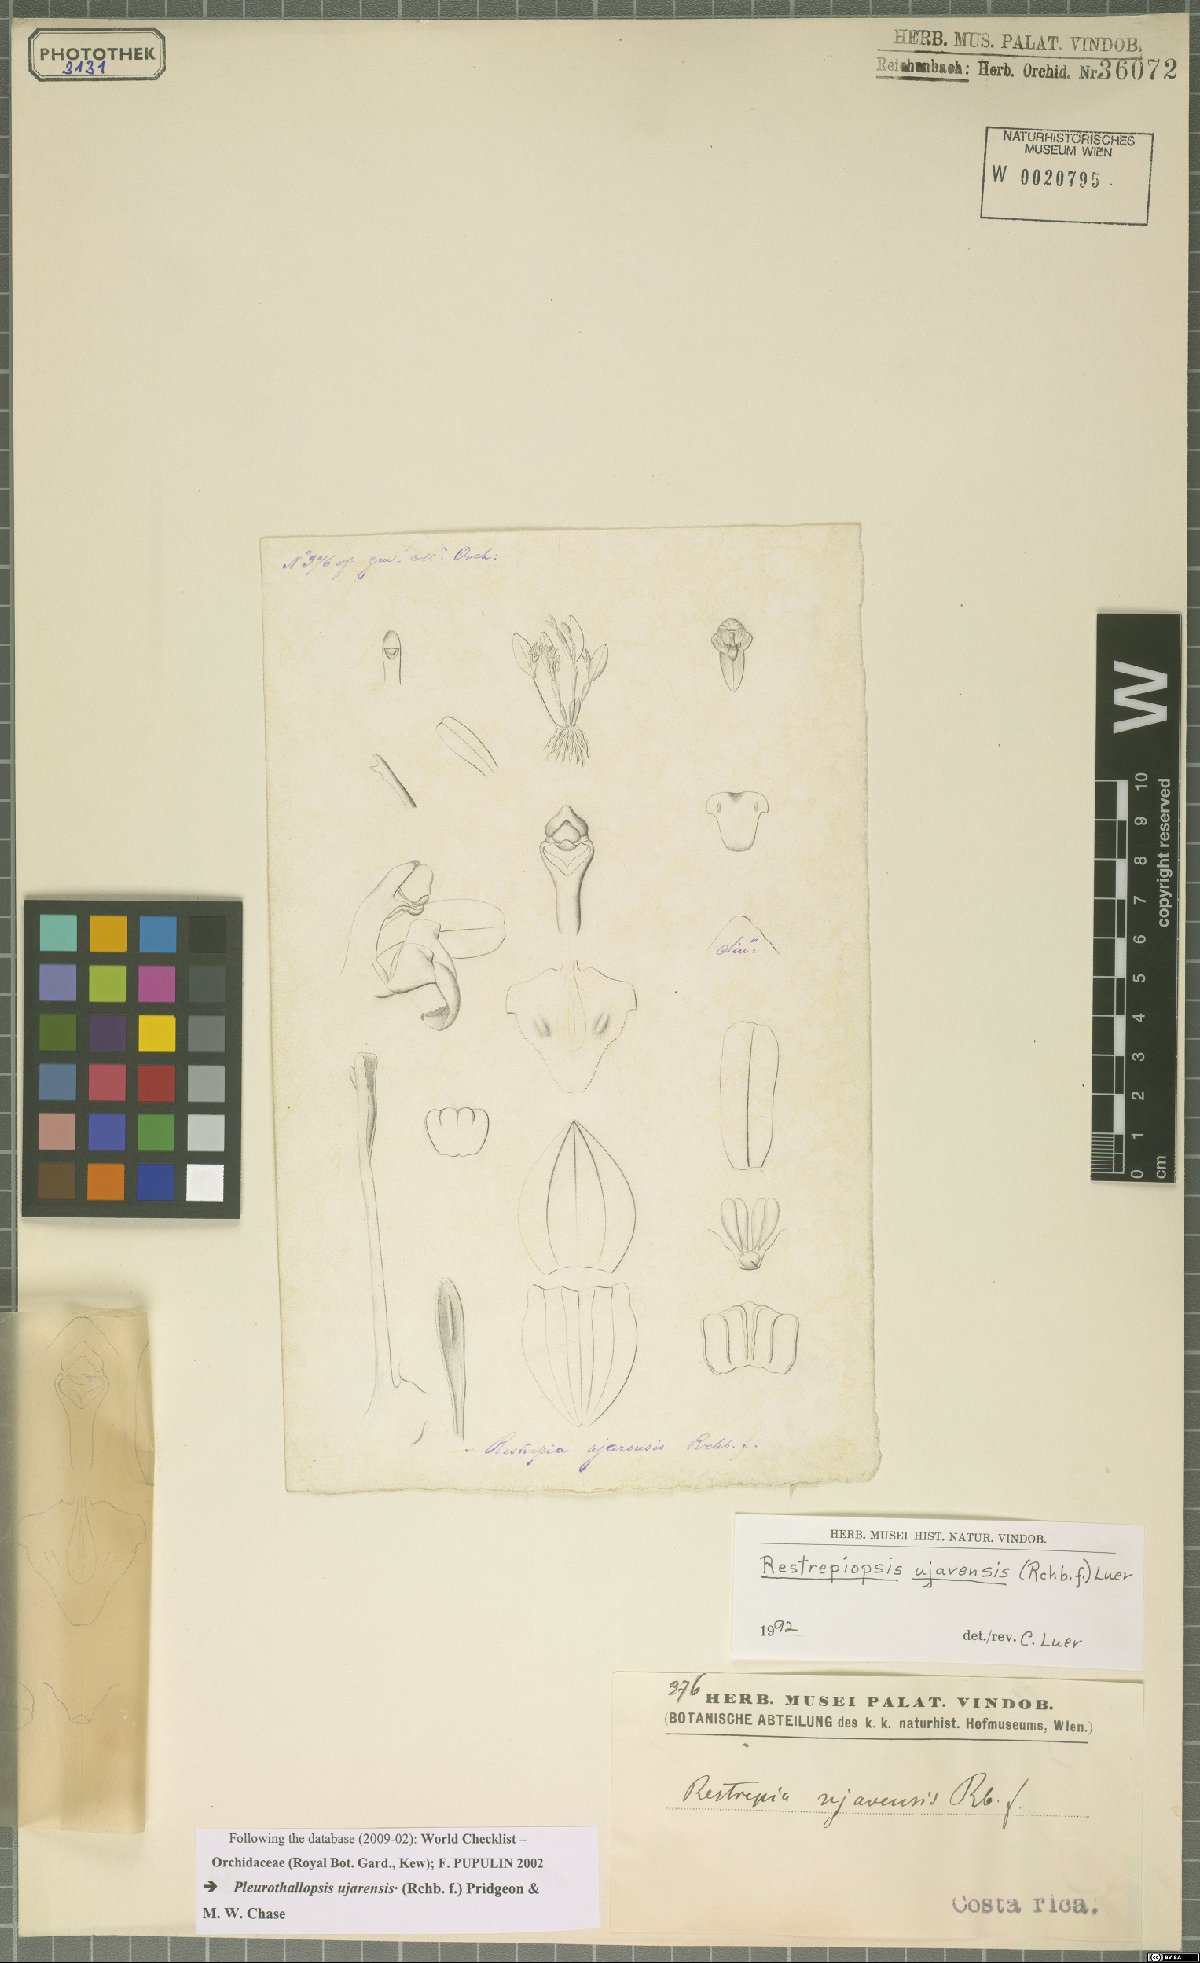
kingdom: Plantae
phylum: Tracheophyta
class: Liliopsida
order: Asparagales
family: Orchidaceae
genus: Pleurothallopsis
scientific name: Pleurothallopsis ujarensis
